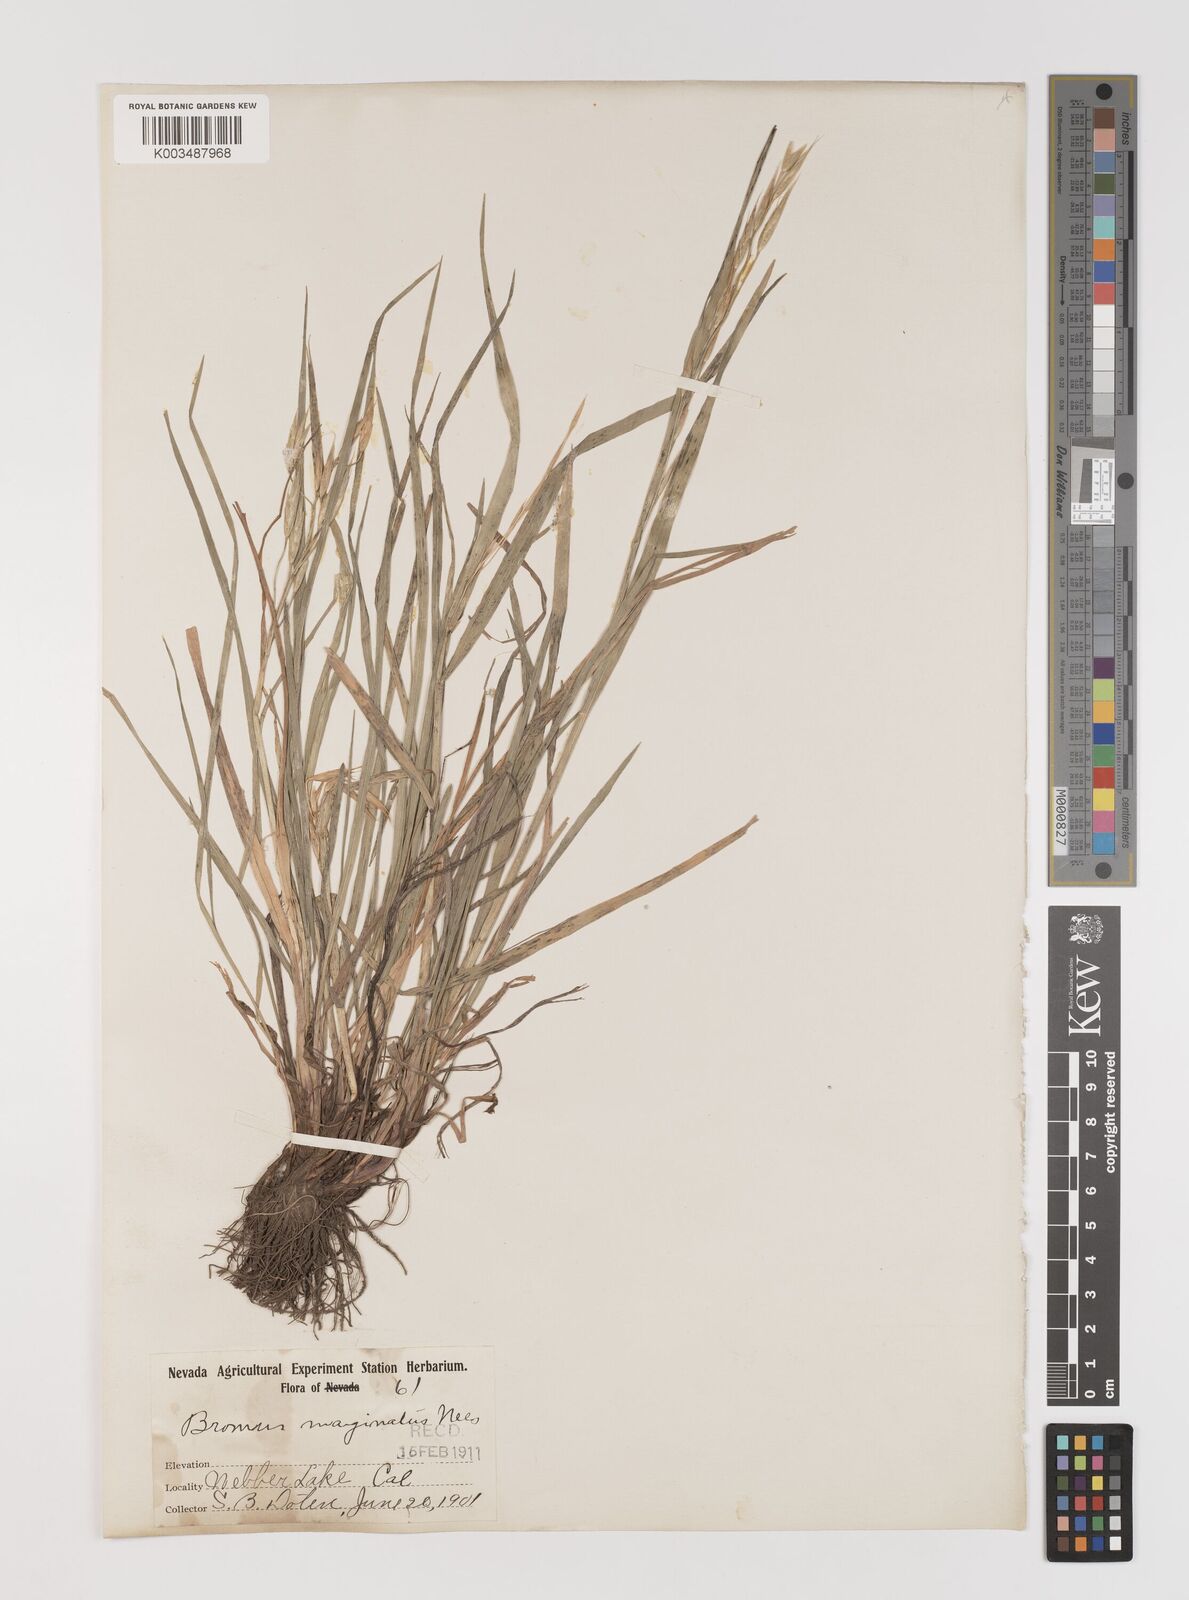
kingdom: Plantae
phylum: Tracheophyta
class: Liliopsida
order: Poales
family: Poaceae
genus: Bromus
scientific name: Bromus marginatus
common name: Western brome
